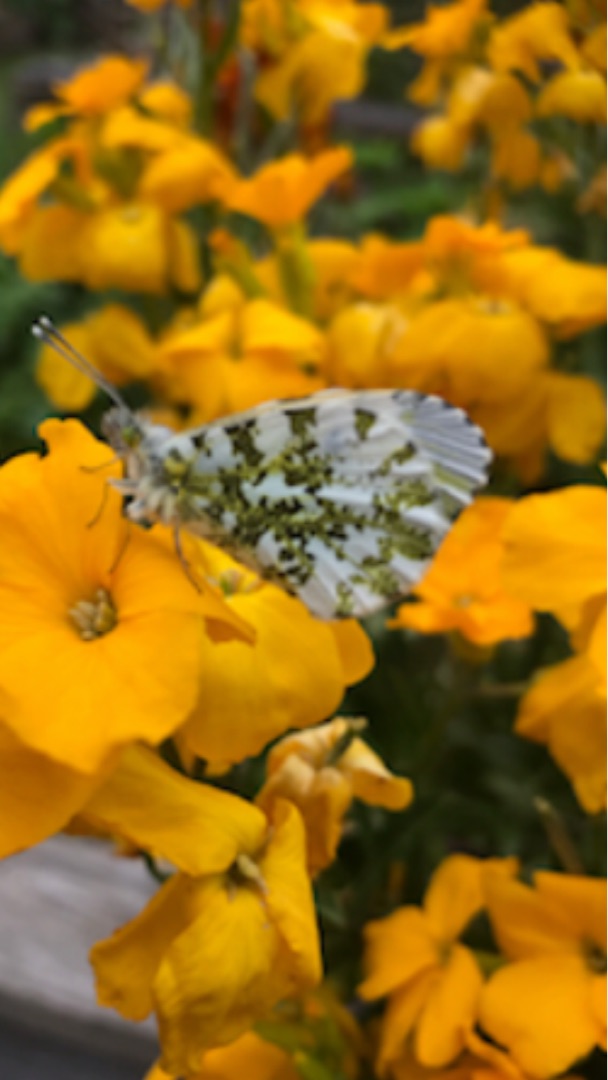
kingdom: Animalia
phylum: Arthropoda
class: Insecta
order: Lepidoptera
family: Pieridae
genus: Anthocharis
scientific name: Anthocharis cardamines
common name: Aurora
